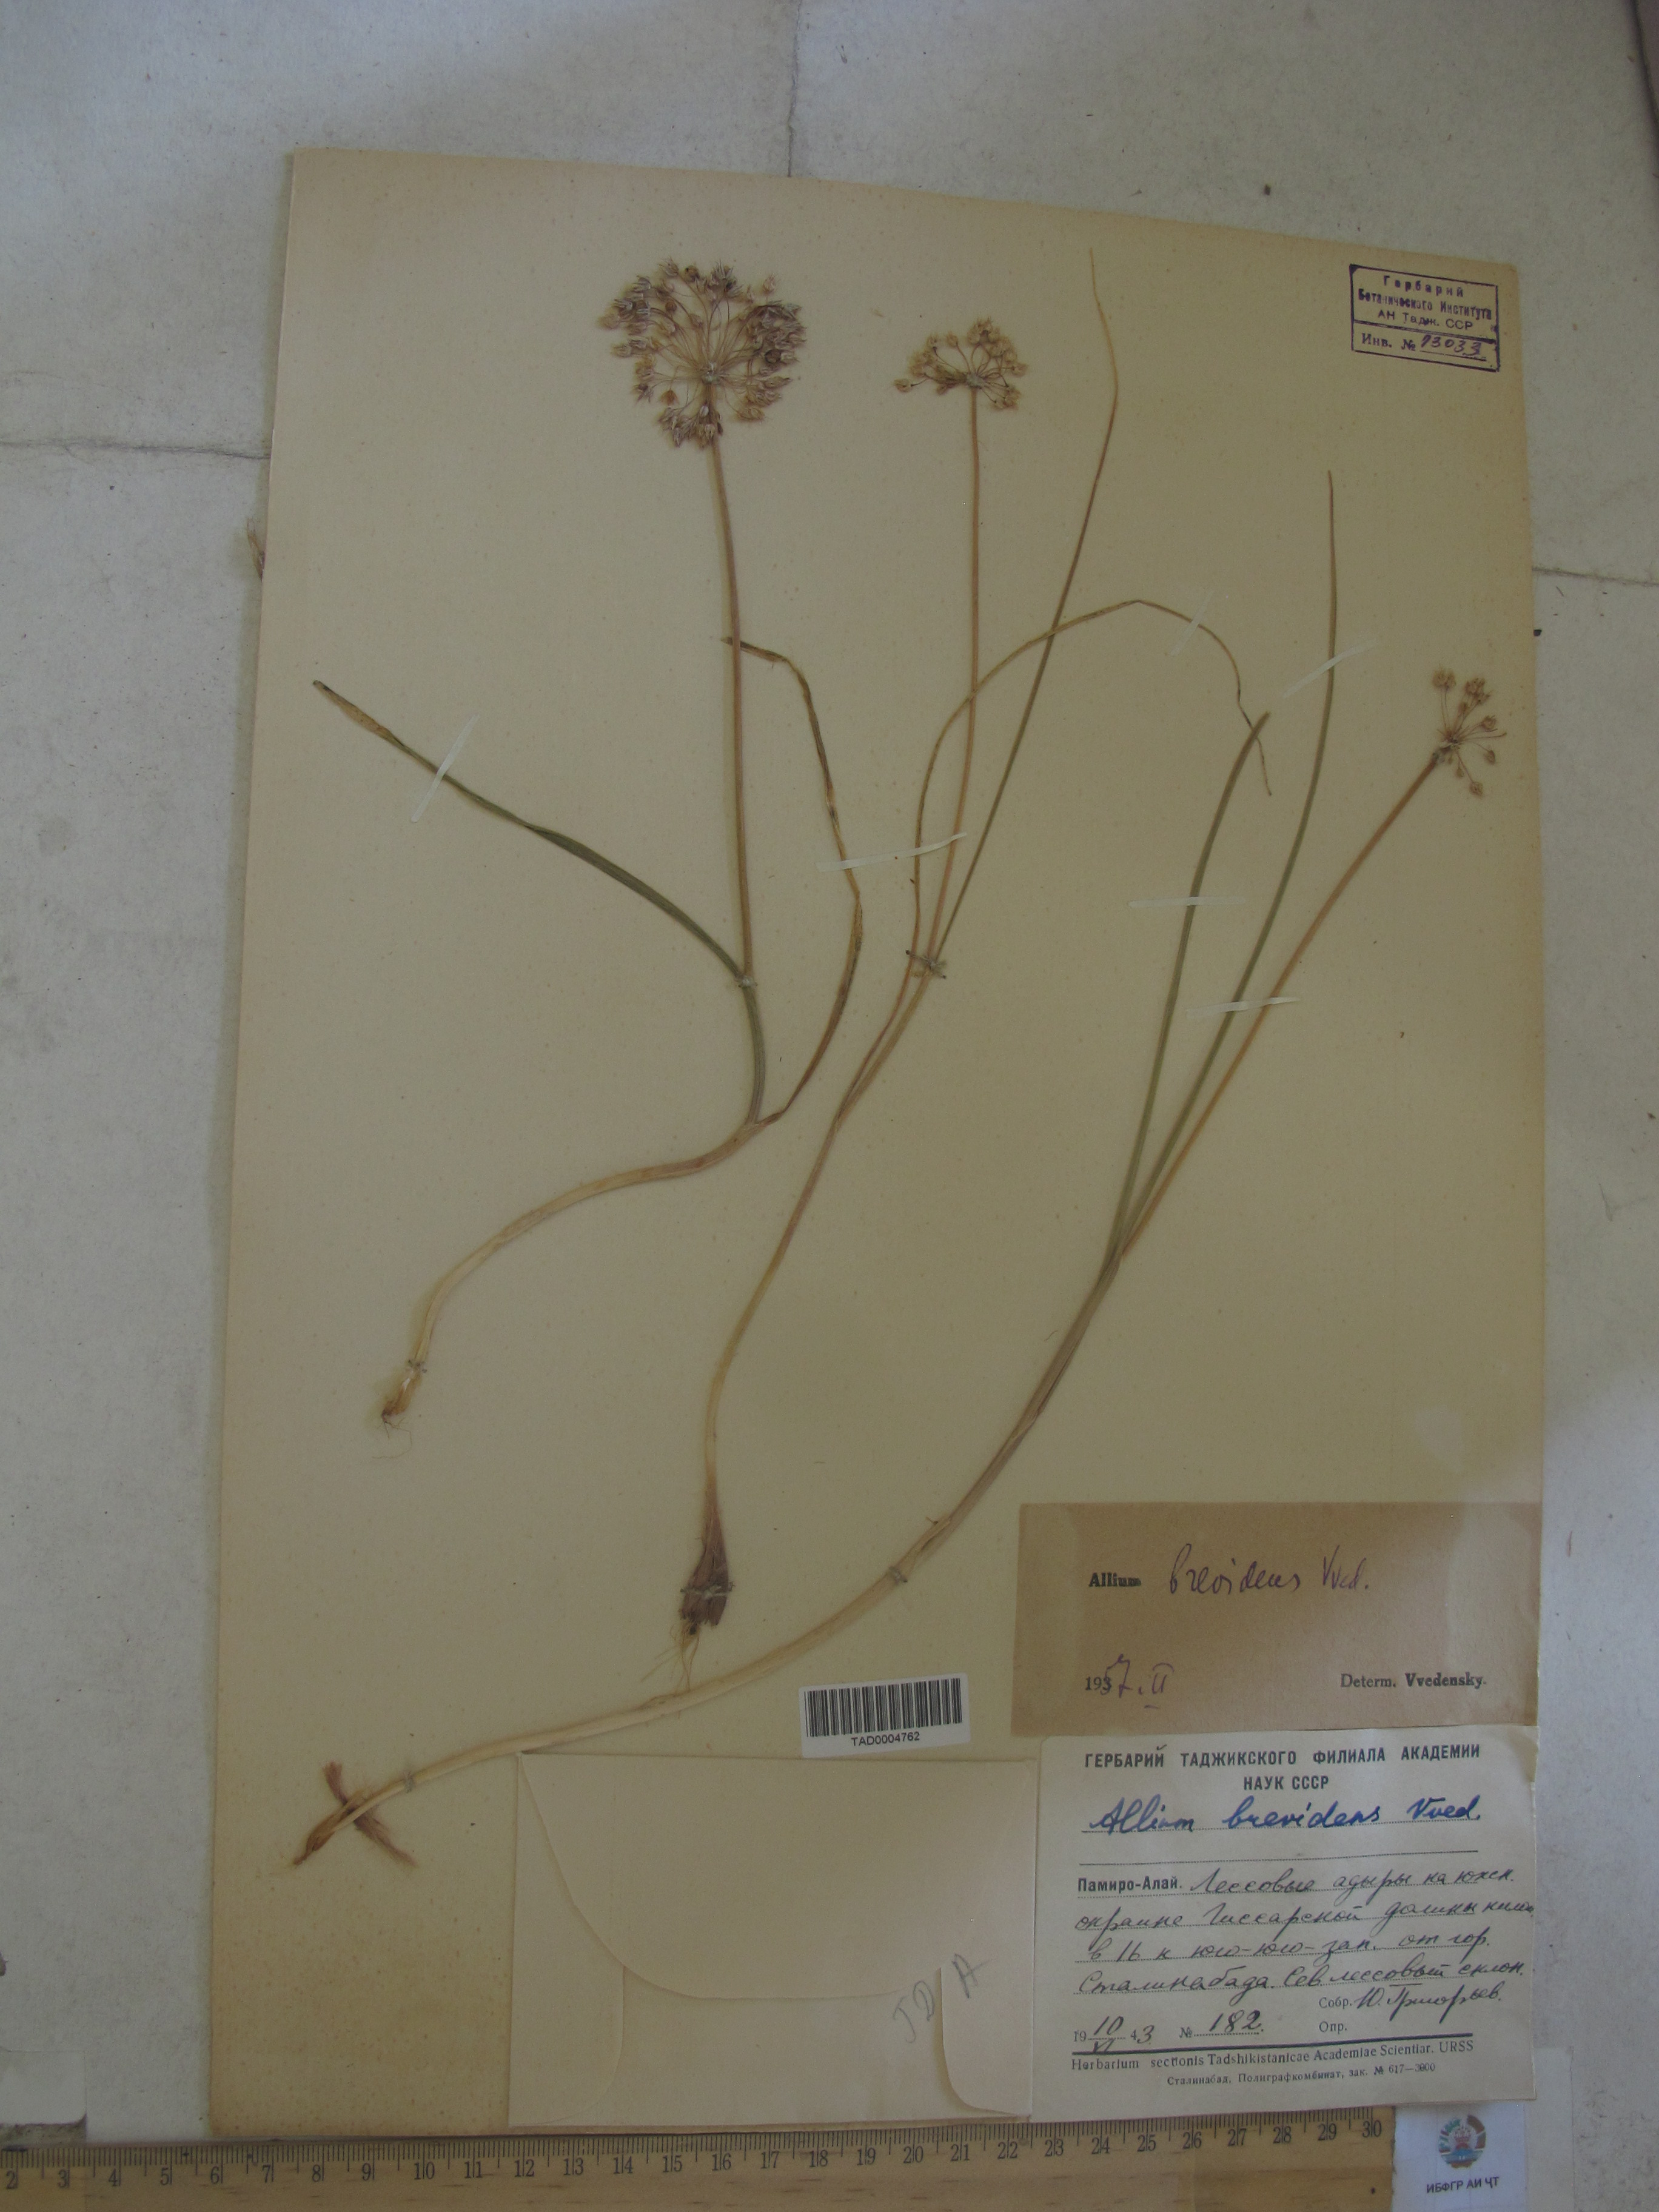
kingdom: Plantae
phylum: Tracheophyta
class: Liliopsida
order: Asparagales
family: Amaryllidaceae
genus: Allium
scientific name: Allium brevidens
